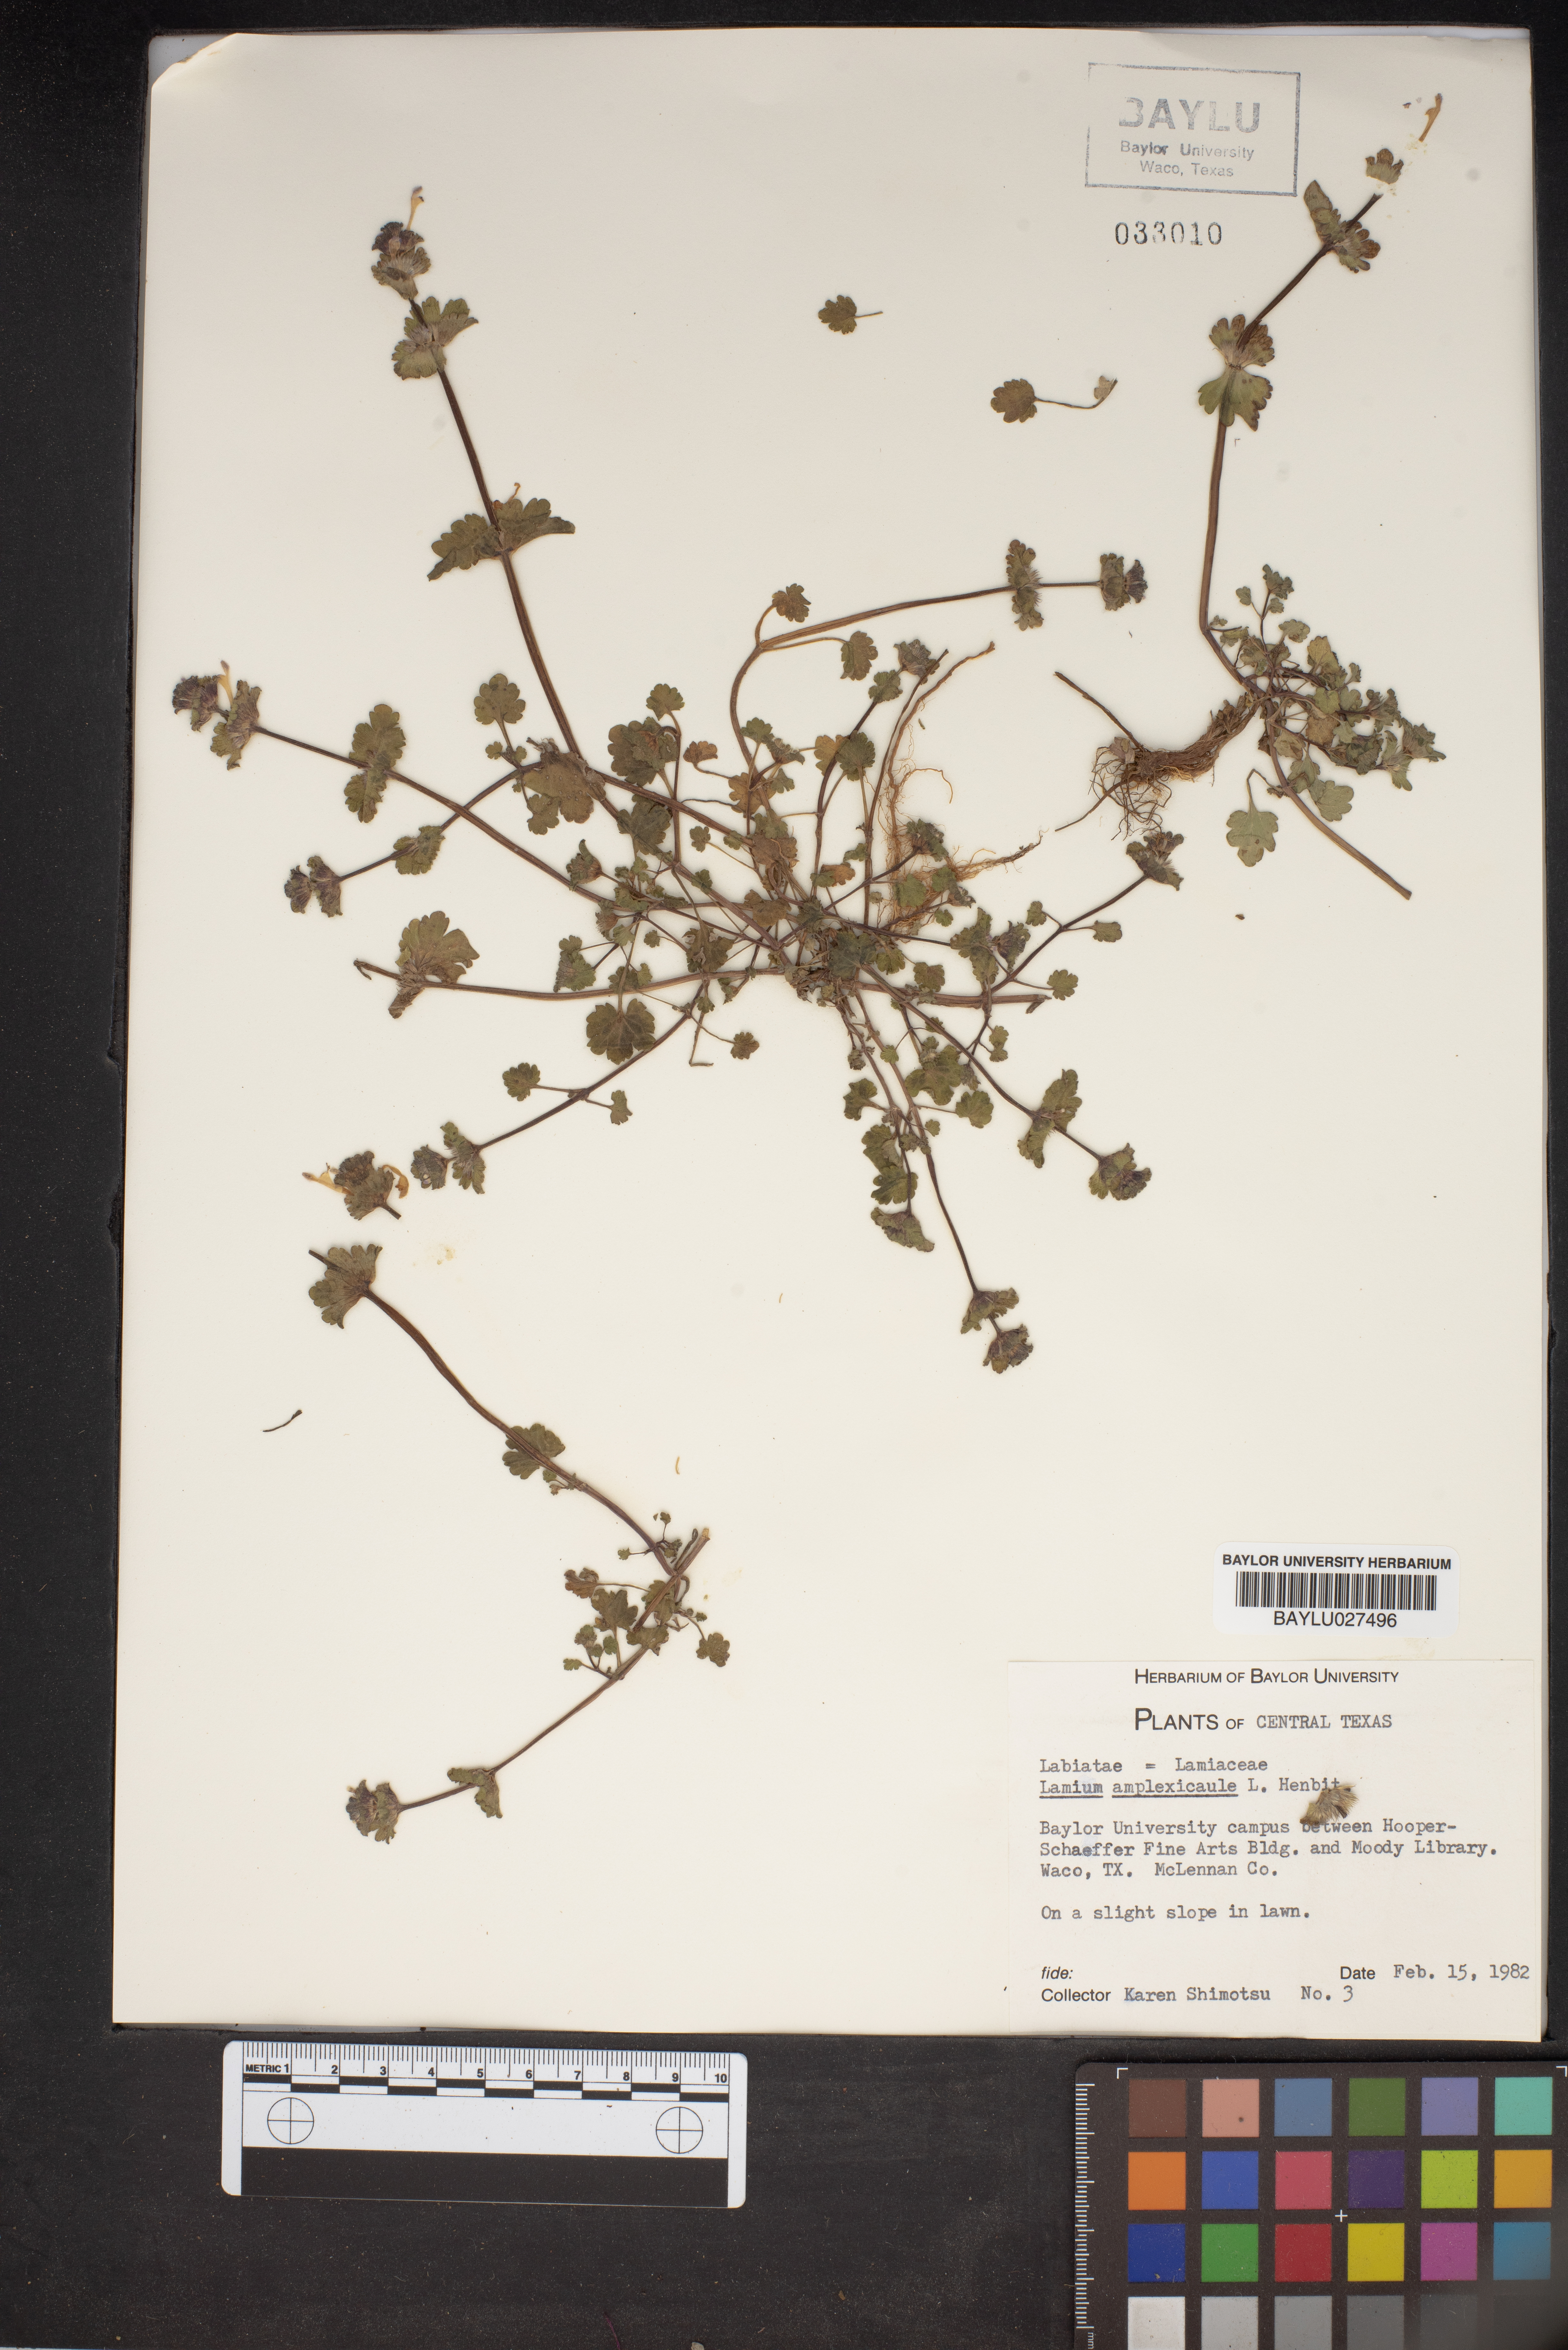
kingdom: Plantae
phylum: Tracheophyta
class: Magnoliopsida
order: Lamiales
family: Lamiaceae
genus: Lamium
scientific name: Lamium amplexicaule
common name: Henbit dead-nettle
